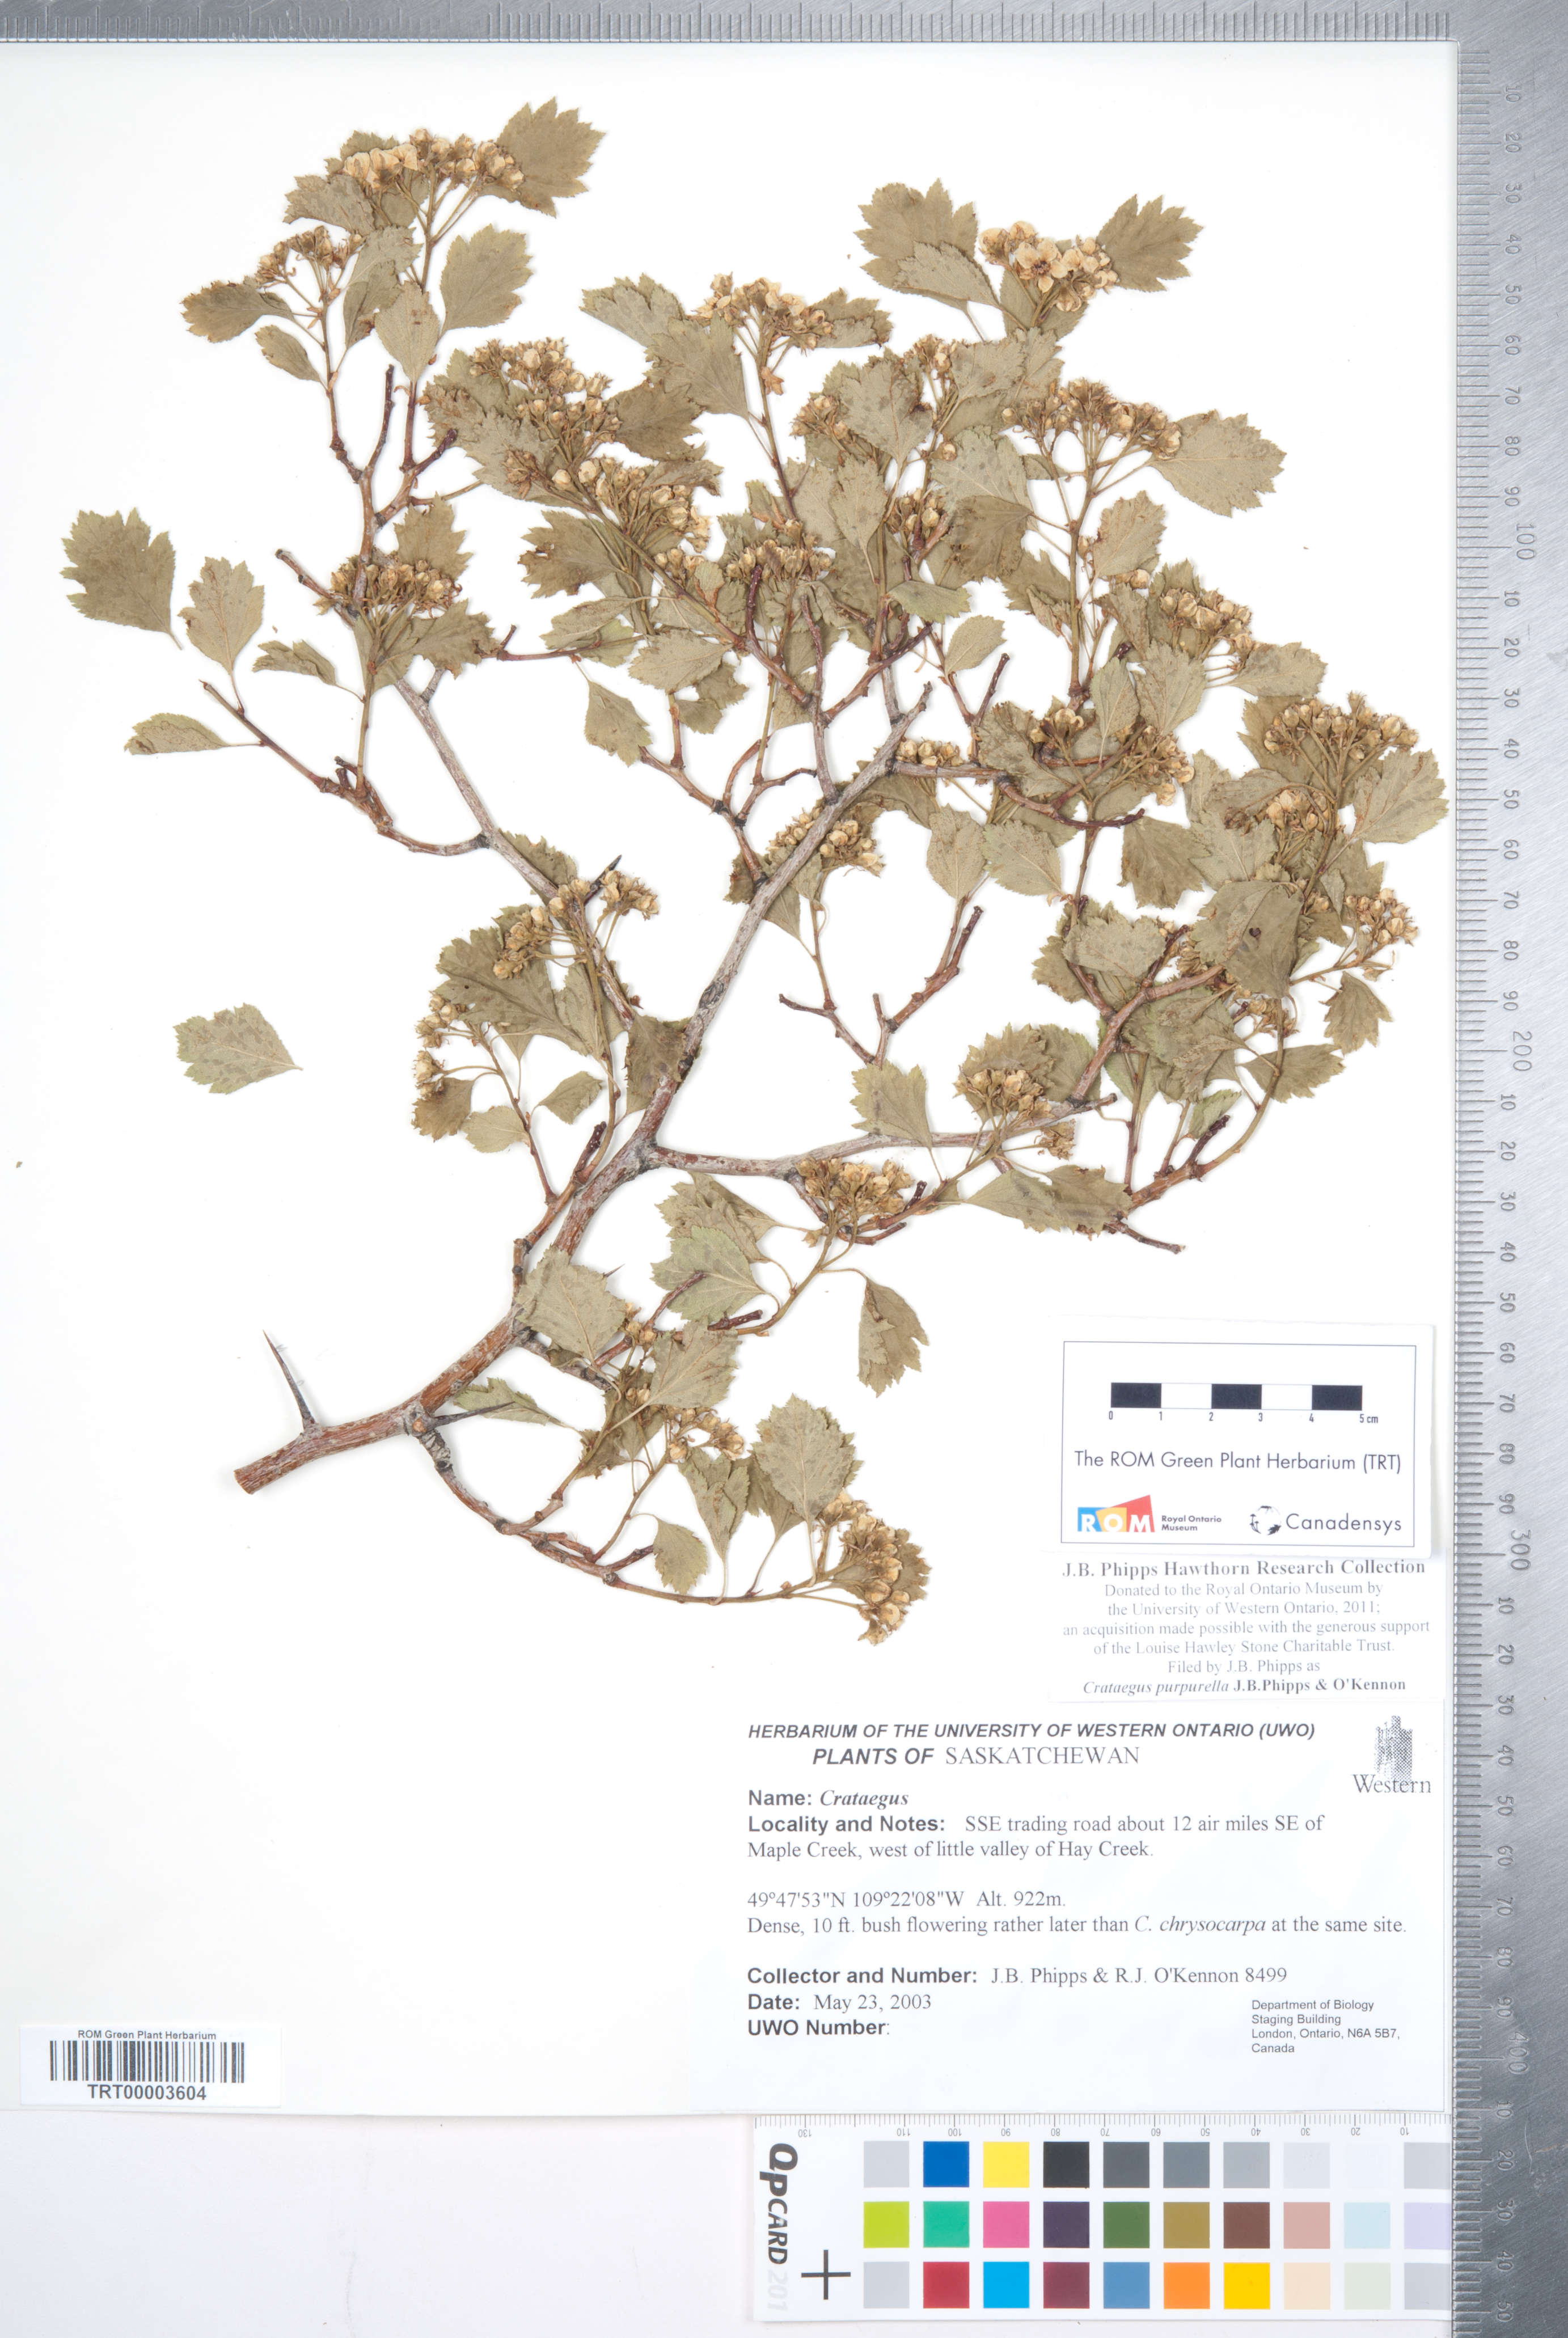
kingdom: Plantae
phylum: Tracheophyta
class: Magnoliopsida
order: Rosales
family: Rosaceae
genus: Crataegus
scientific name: Crataegus purpurella
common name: Loch lomond hawthorn
